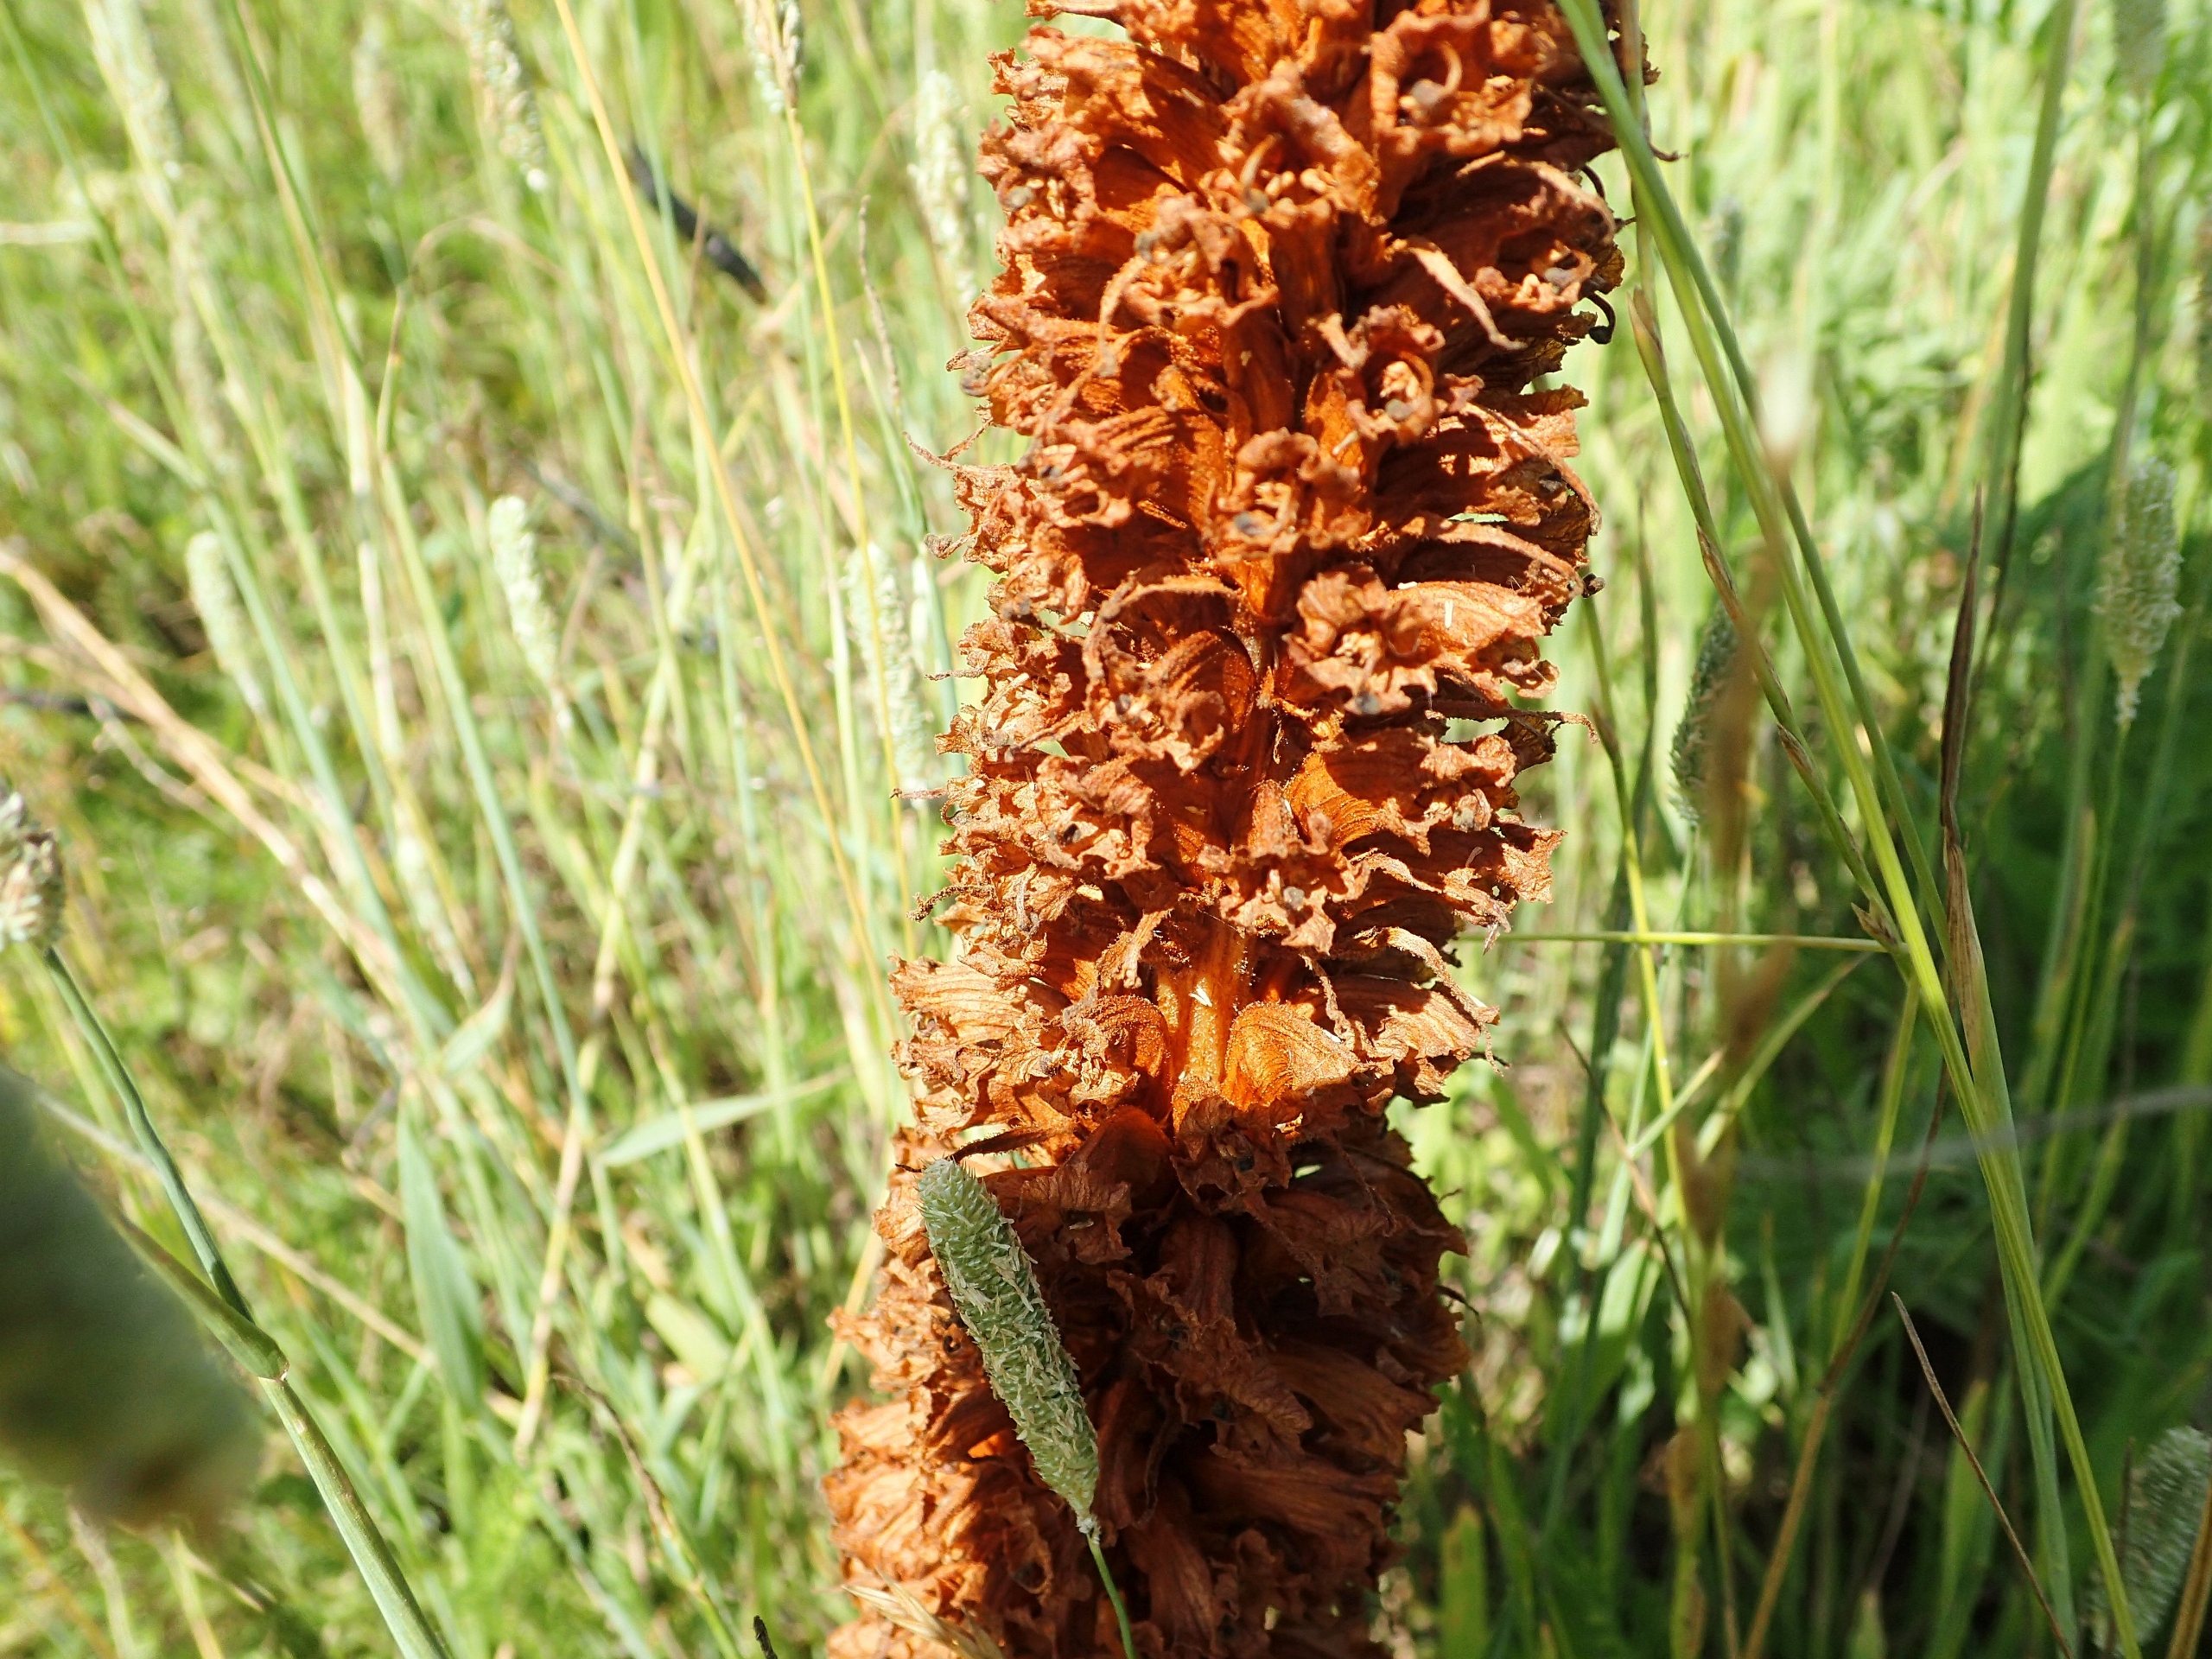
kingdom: Plantae
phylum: Tracheophyta
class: Magnoliopsida
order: Lamiales
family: Orobanchaceae
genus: Orobanche
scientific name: Orobanche elatior
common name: Stor gyvelkvæler
